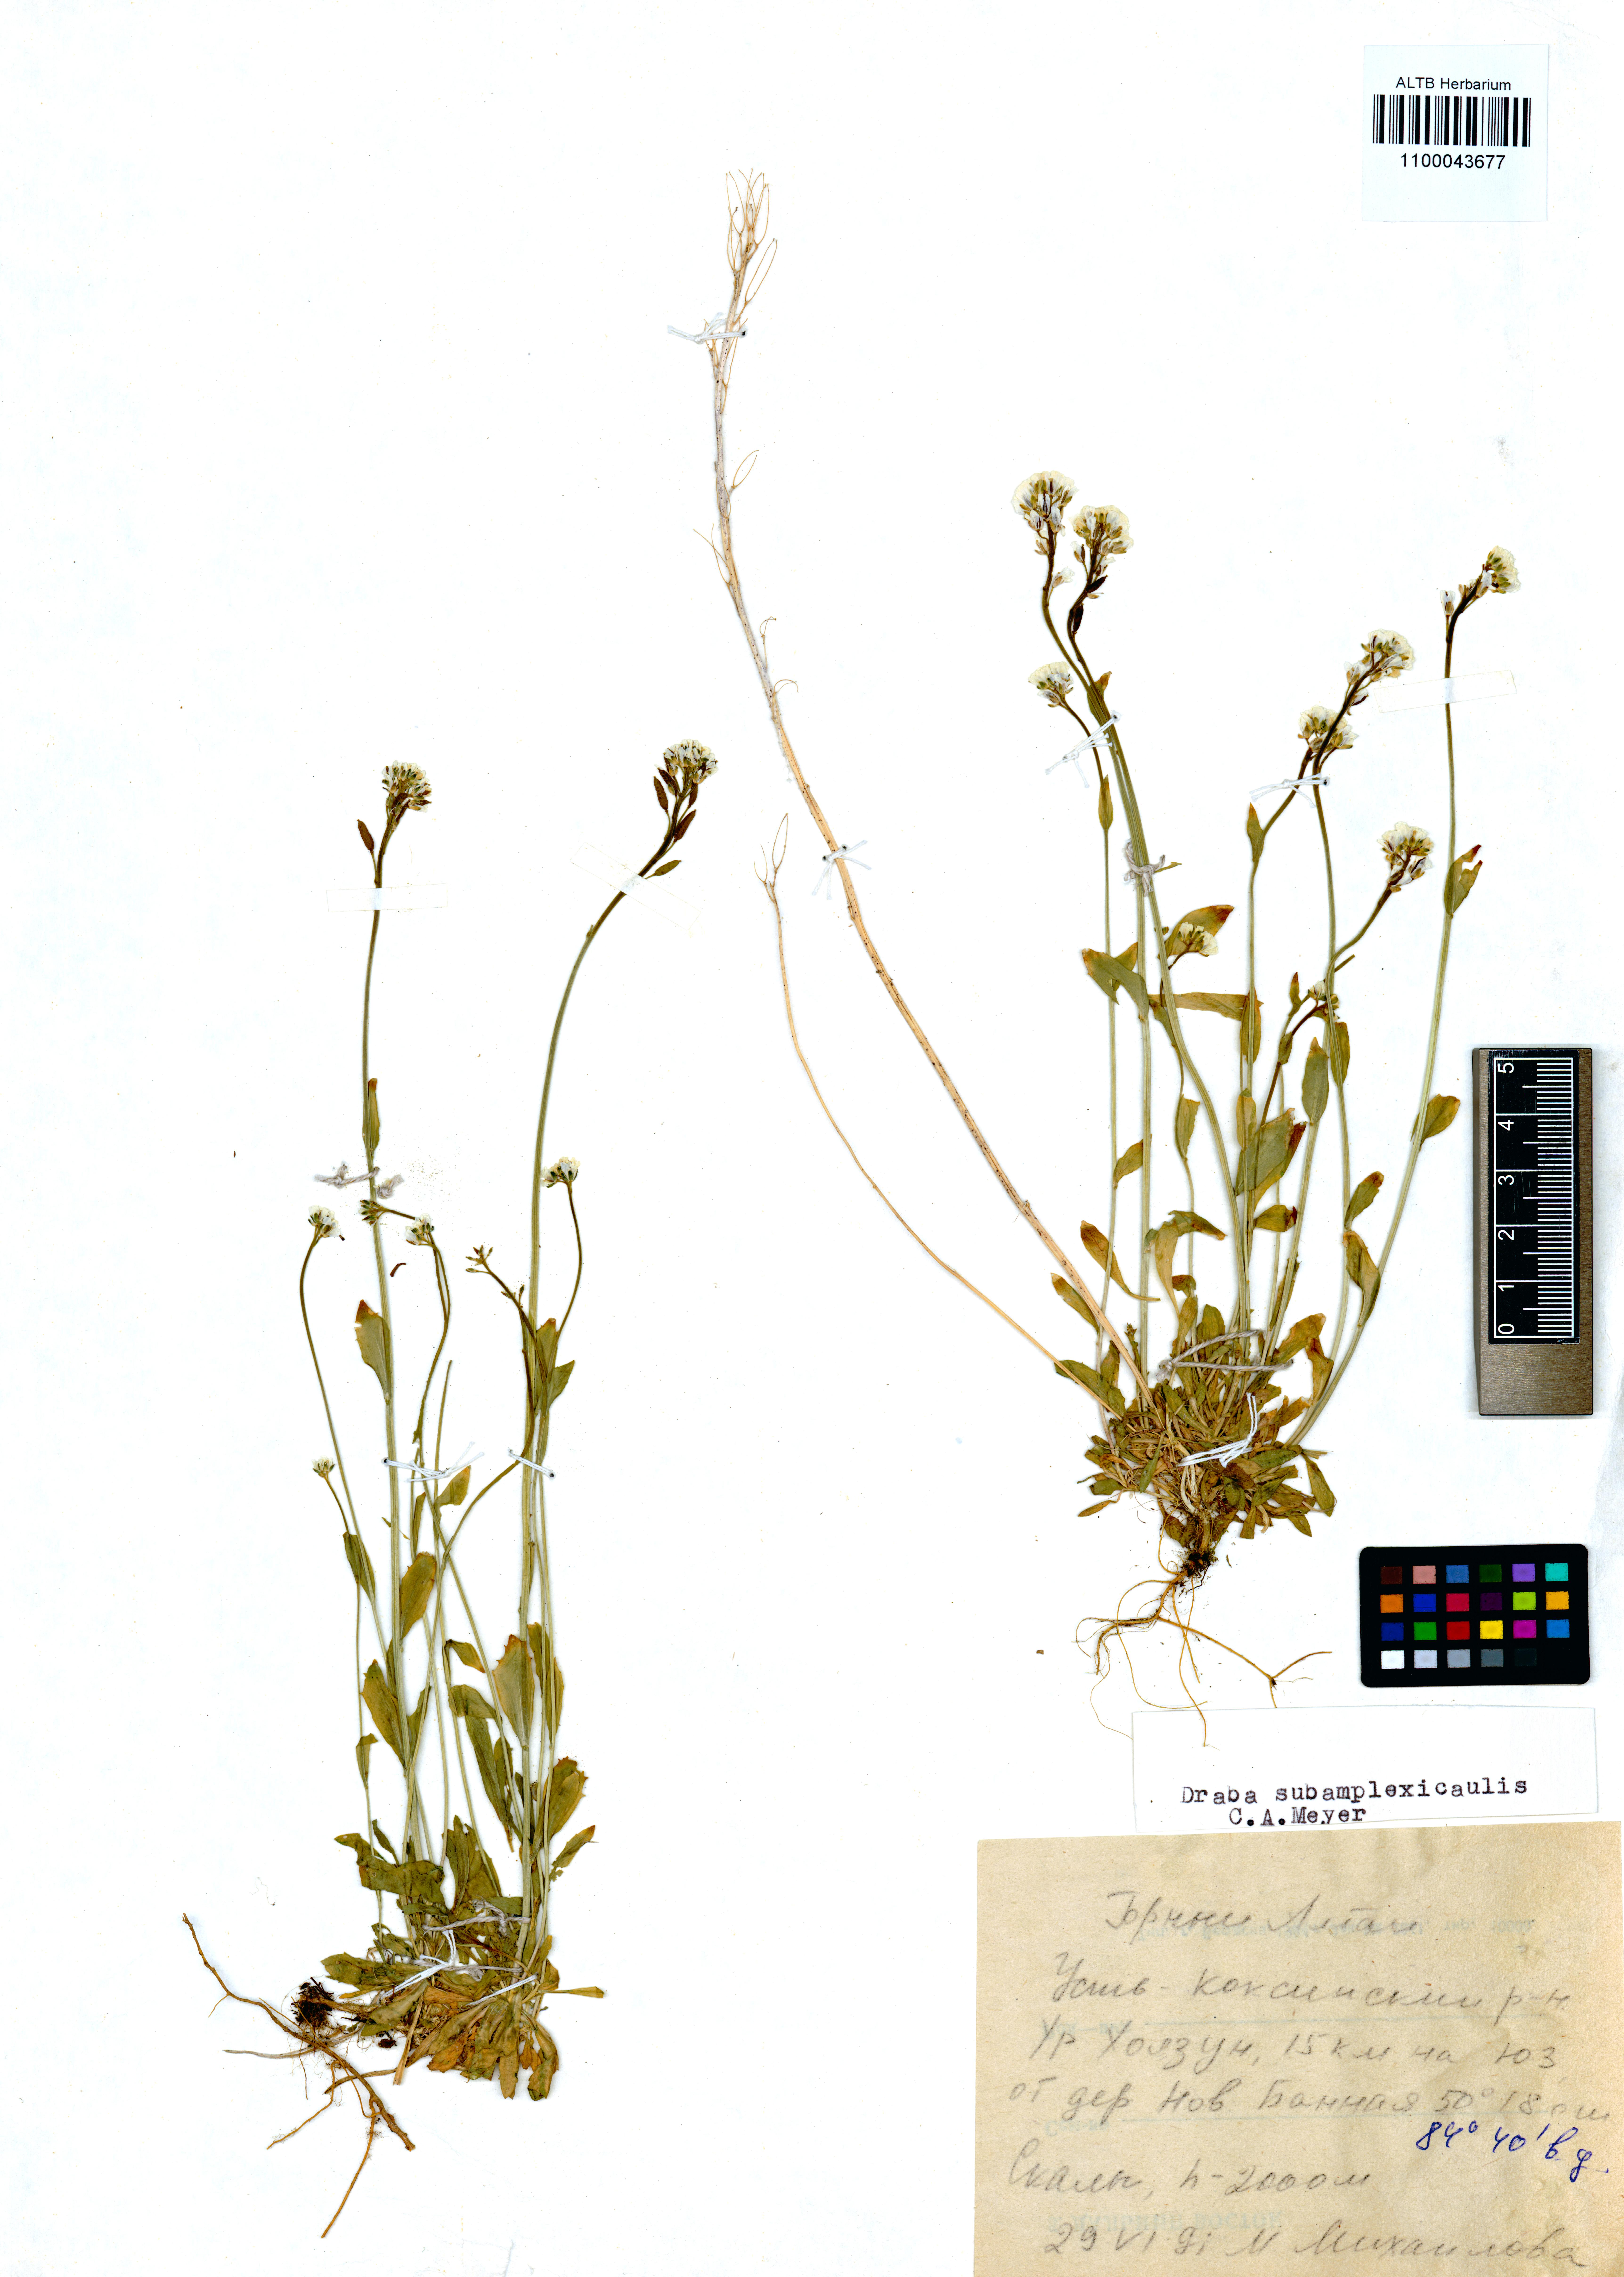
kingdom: Plantae
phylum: Tracheophyta
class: Magnoliopsida
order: Brassicales
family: Brassicaceae
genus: Draba
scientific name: Draba subamplexicaulis
